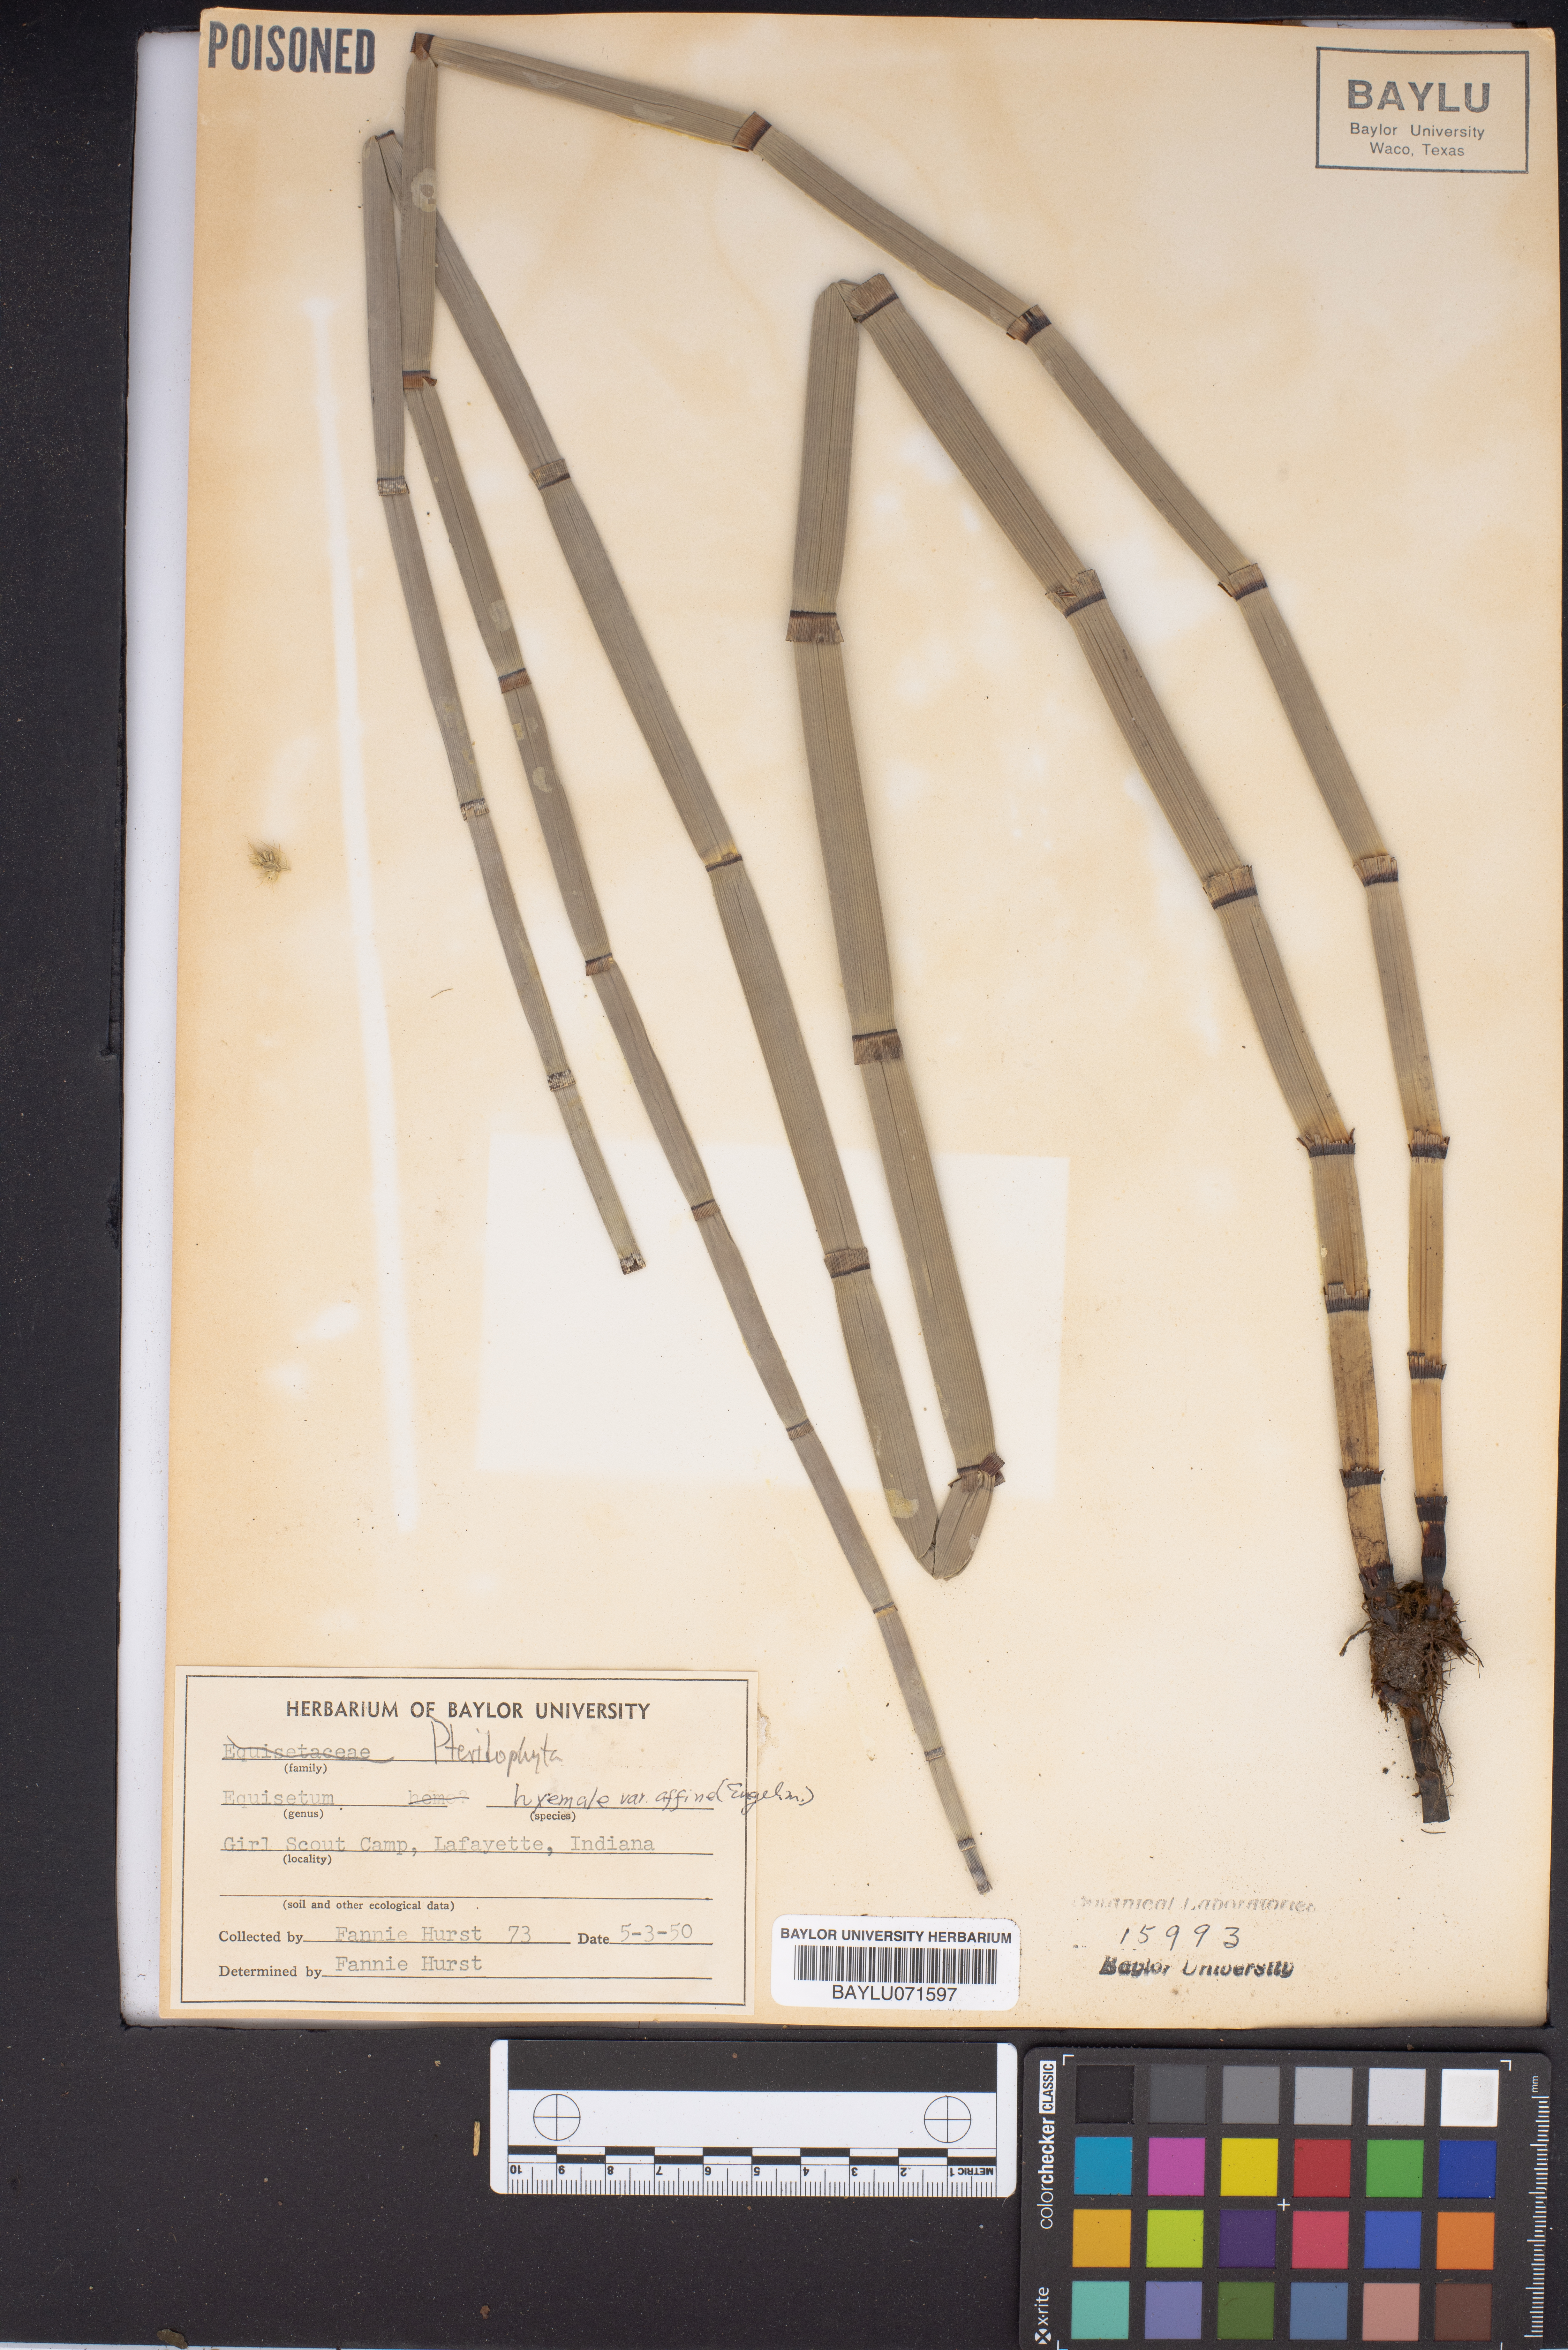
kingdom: Plantae
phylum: Tracheophyta
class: Polypodiopsida
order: Equisetales
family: Equisetaceae
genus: Equisetum
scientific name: Equisetum hyemale
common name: Rough horsetail
